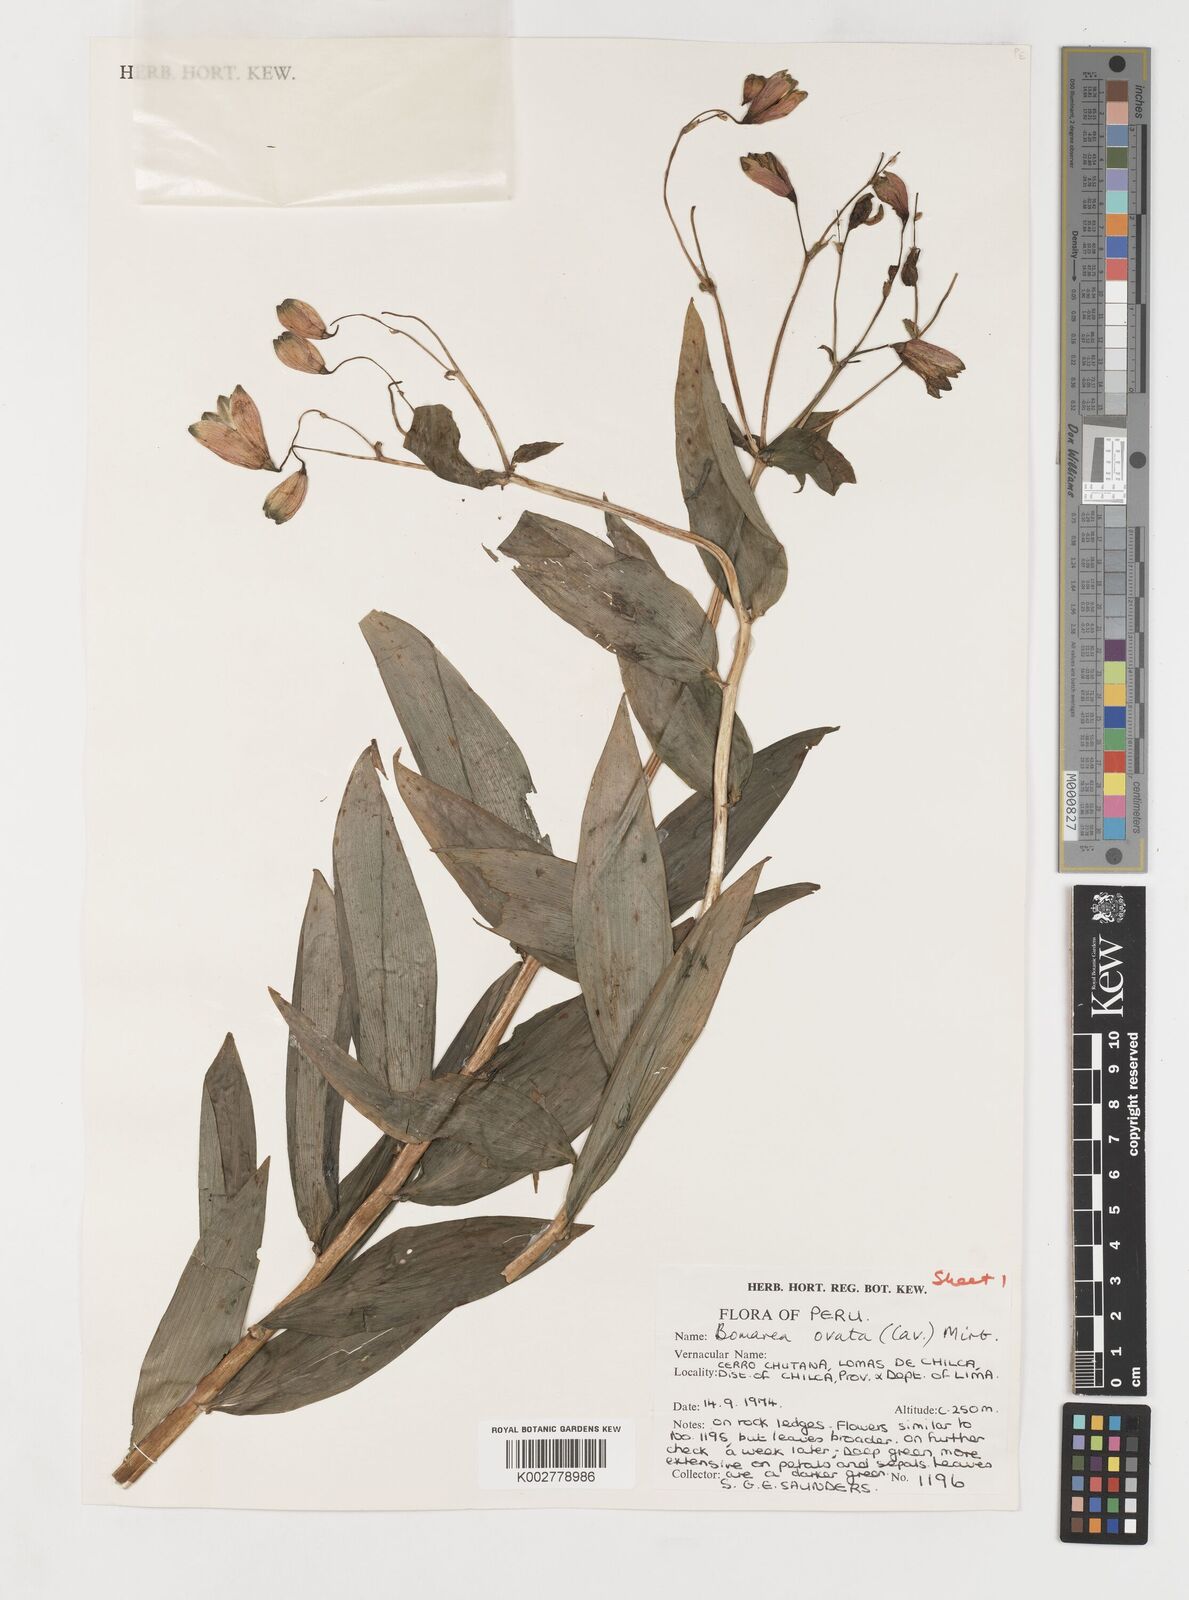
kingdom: Plantae
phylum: Tracheophyta
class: Liliopsida
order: Liliales
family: Alstroemeriaceae
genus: Bomarea
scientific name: Bomarea ovata
